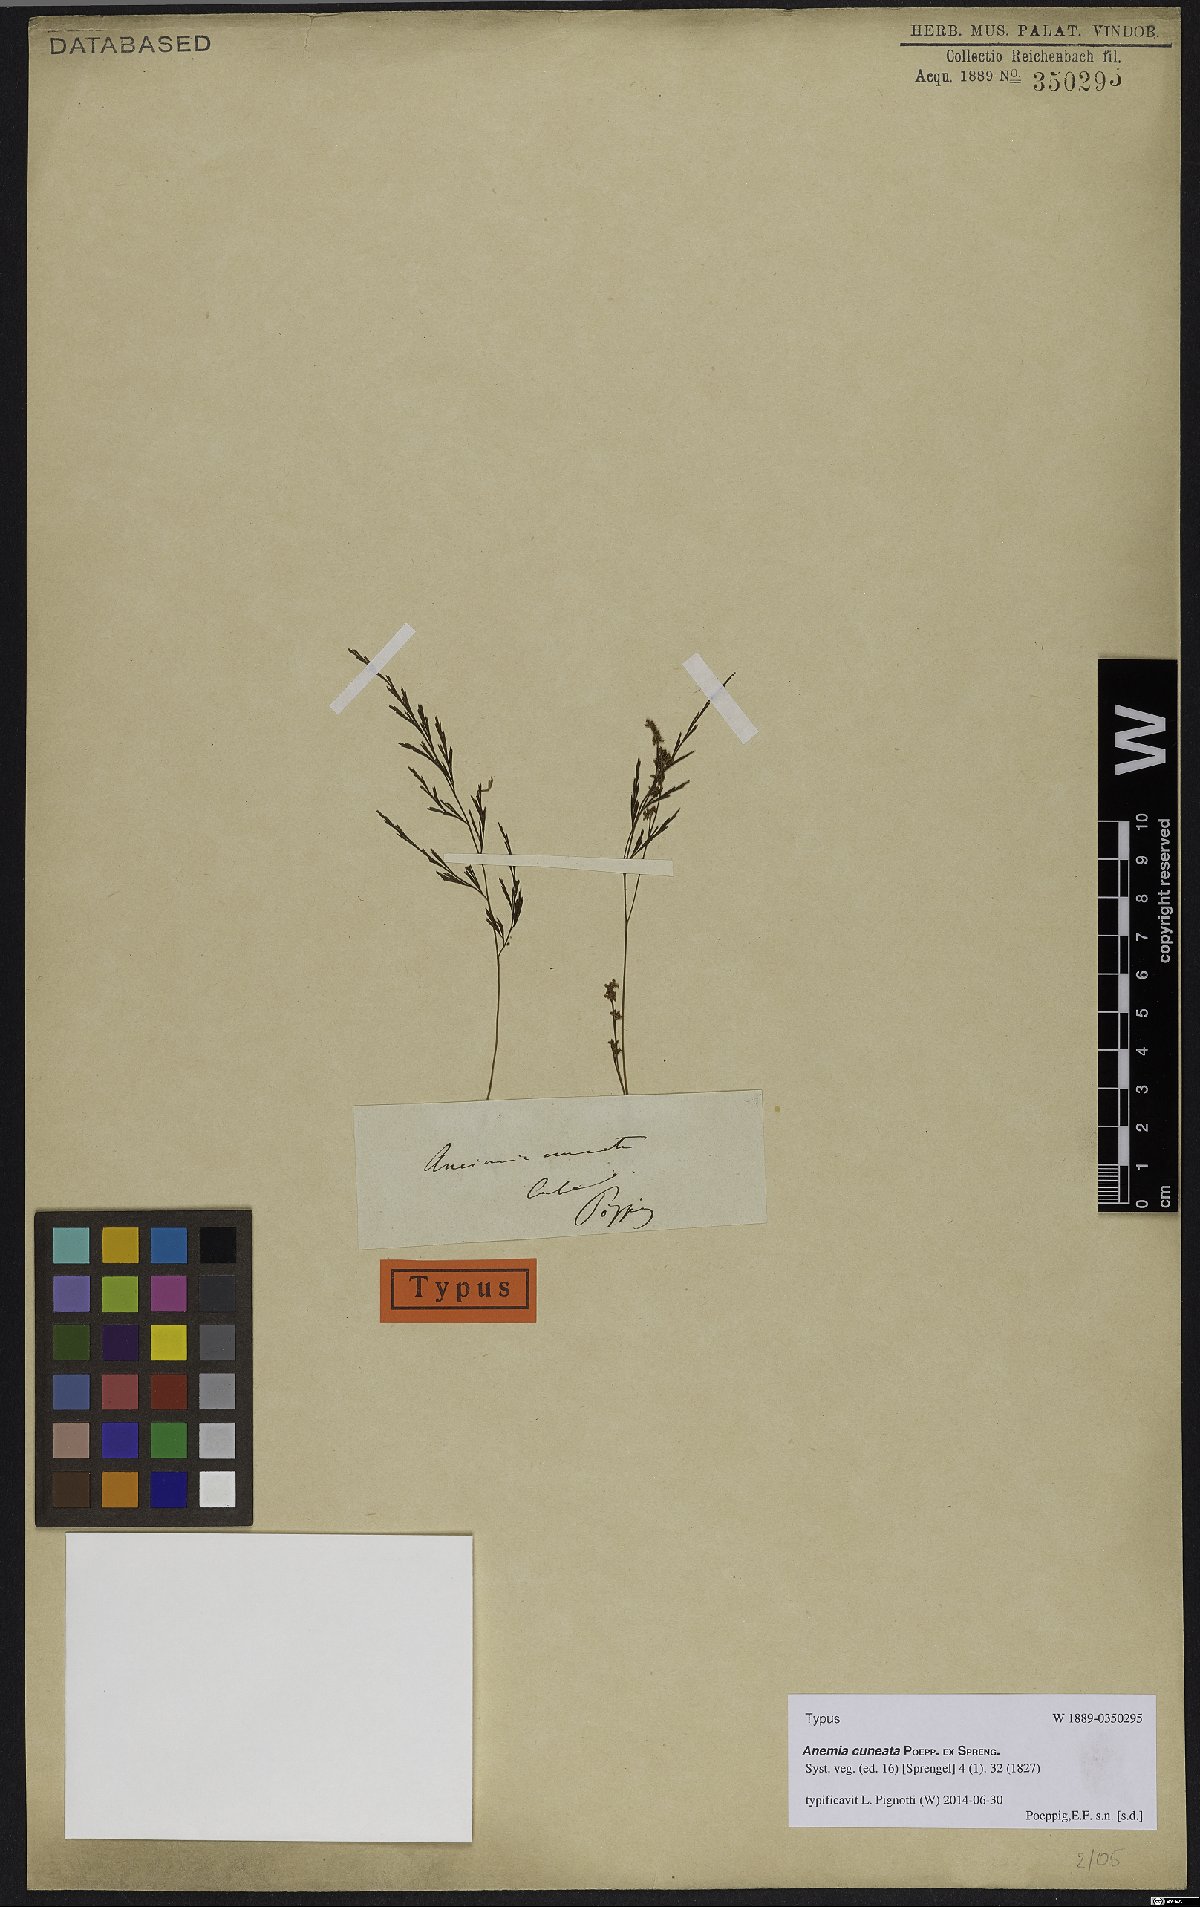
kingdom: Plantae
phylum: Tracheophyta
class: Polypodiopsida
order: Schizaeales
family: Anemiaceae
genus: Anemia
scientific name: Anemia cuneata
